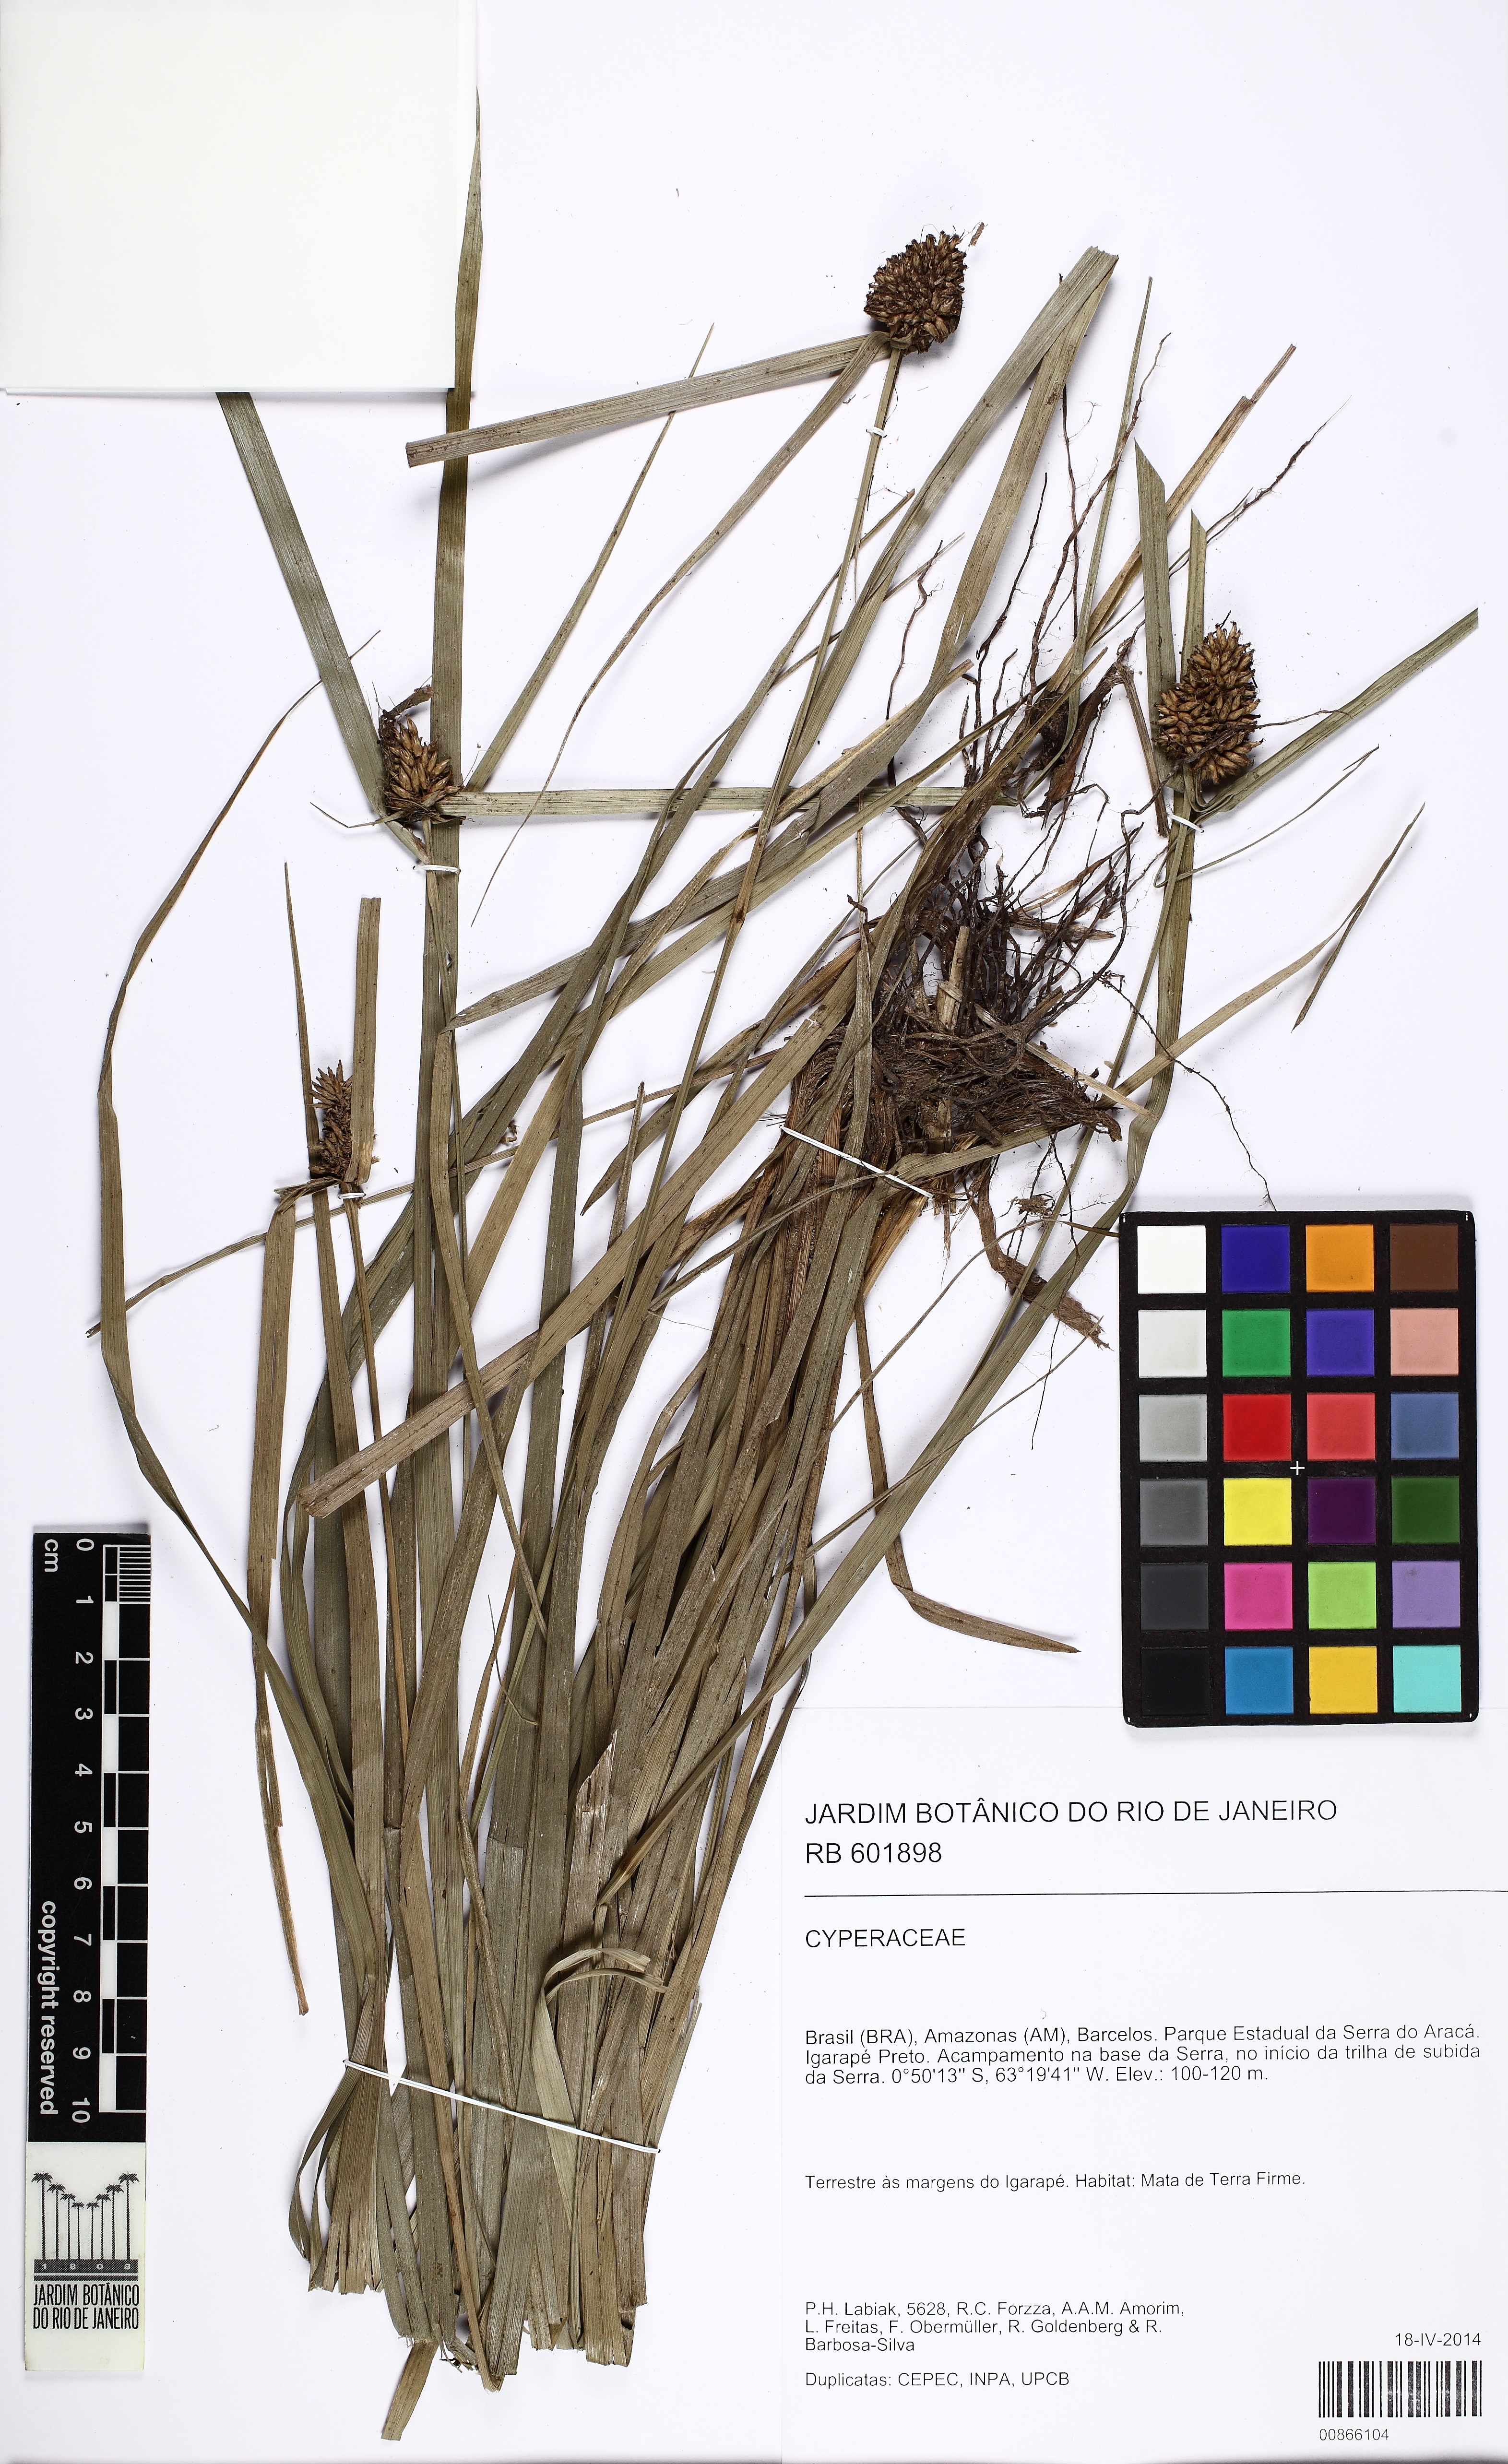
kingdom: Plantae
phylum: Tracheophyta
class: Liliopsida
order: Poales
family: Cyperaceae
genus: Rhynchospora
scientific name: Rhynchospora cephalotes
